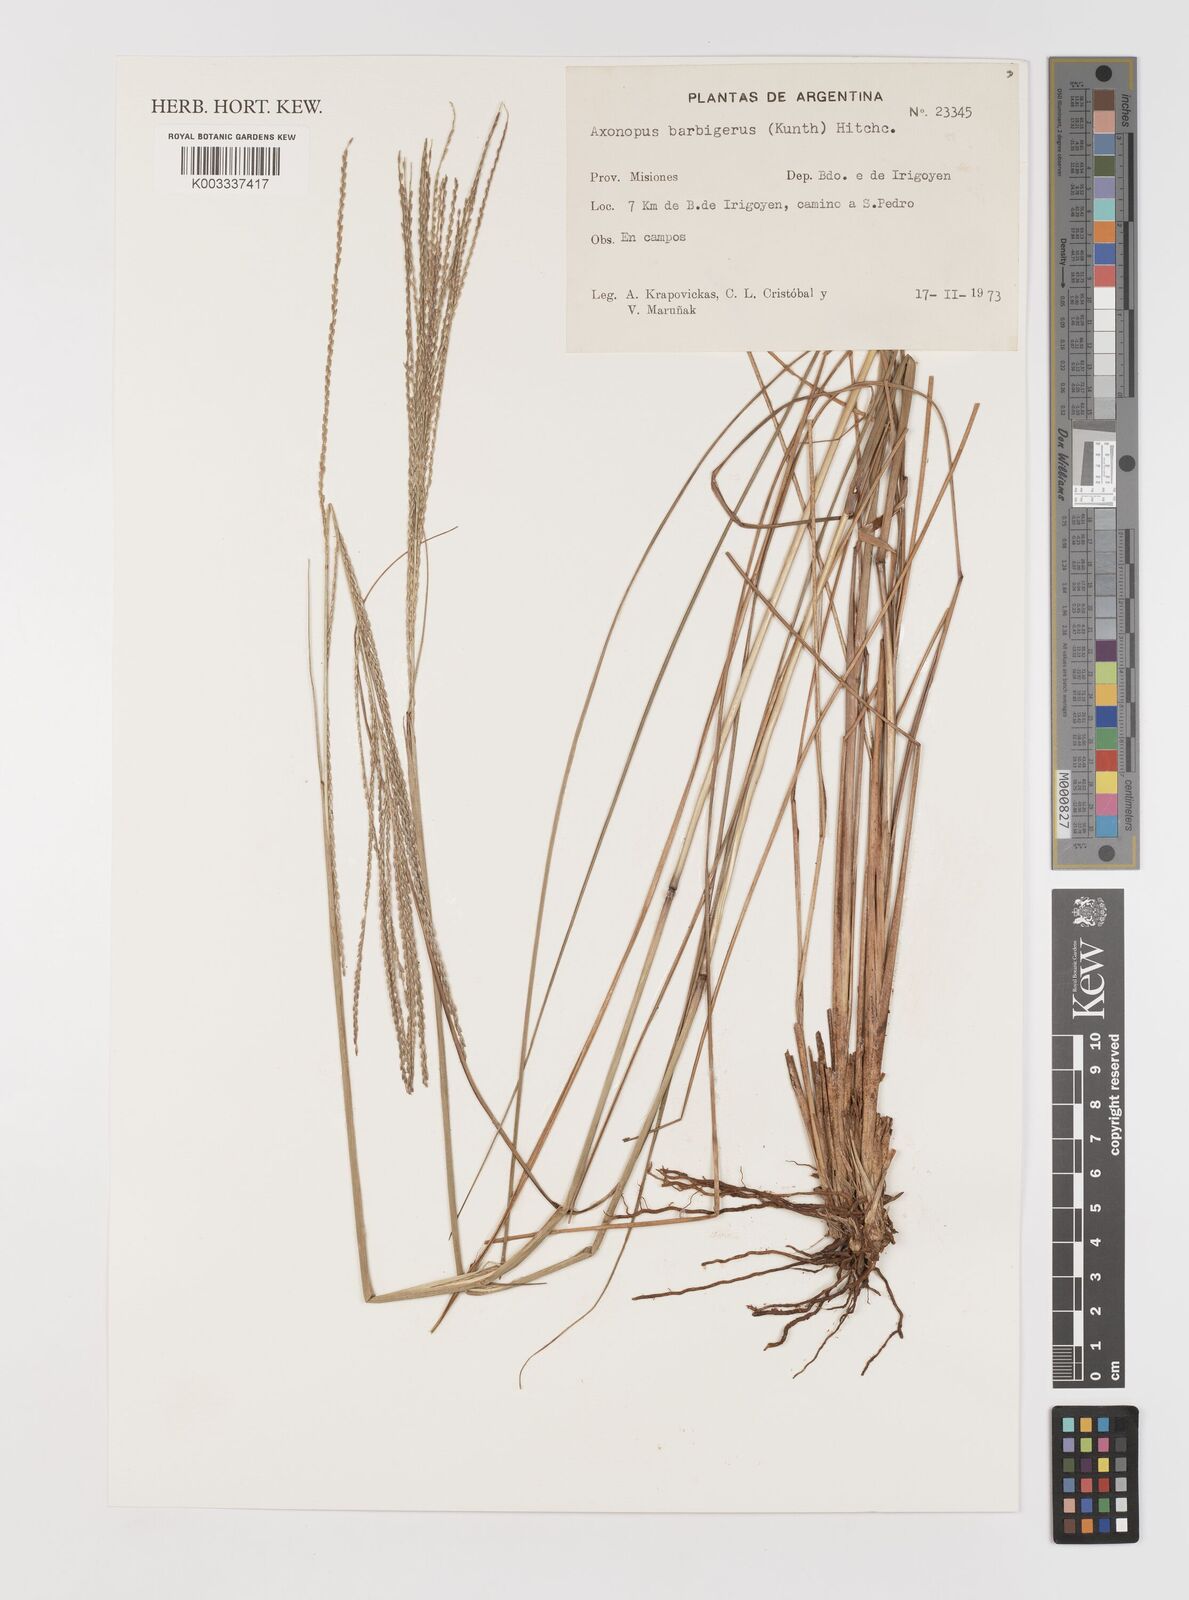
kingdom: Plantae
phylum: Tracheophyta
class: Liliopsida
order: Poales
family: Poaceae
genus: Axonopus
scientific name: Axonopus siccus
